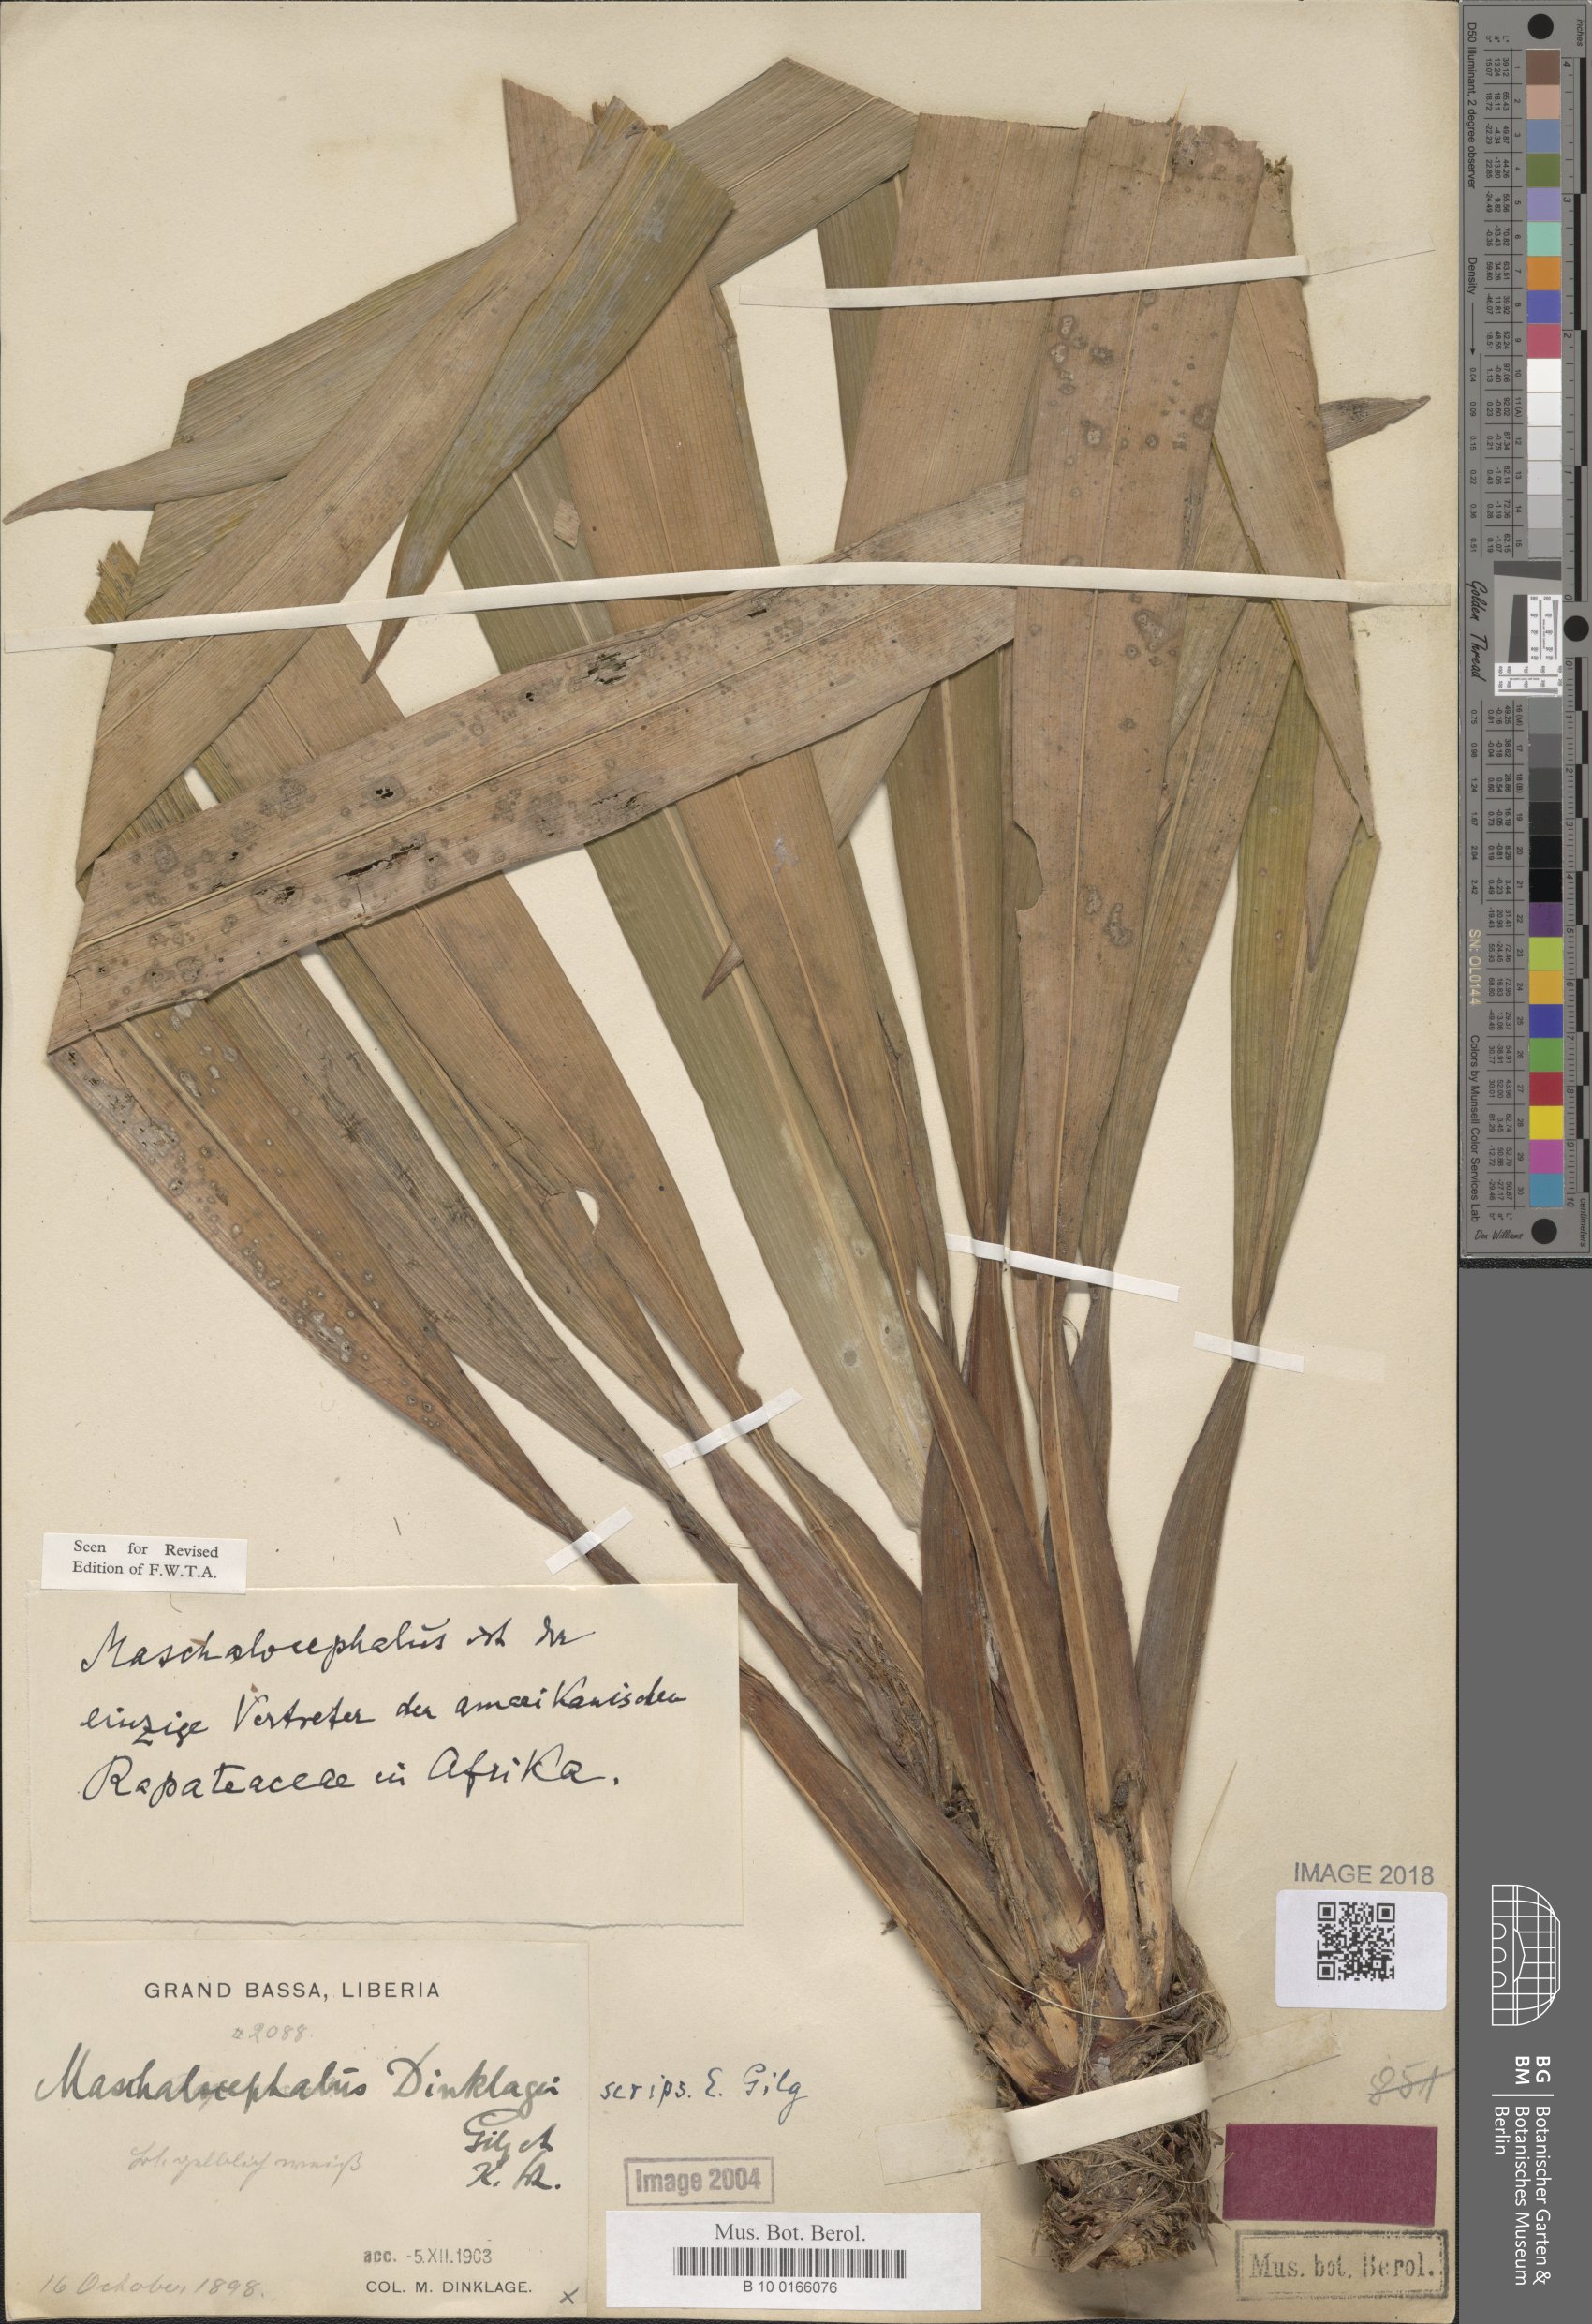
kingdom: Plantae
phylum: Tracheophyta
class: Liliopsida
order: Poales
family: Rapateaceae
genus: Maschalocephalus
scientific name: Maschalocephalus dinklagei
